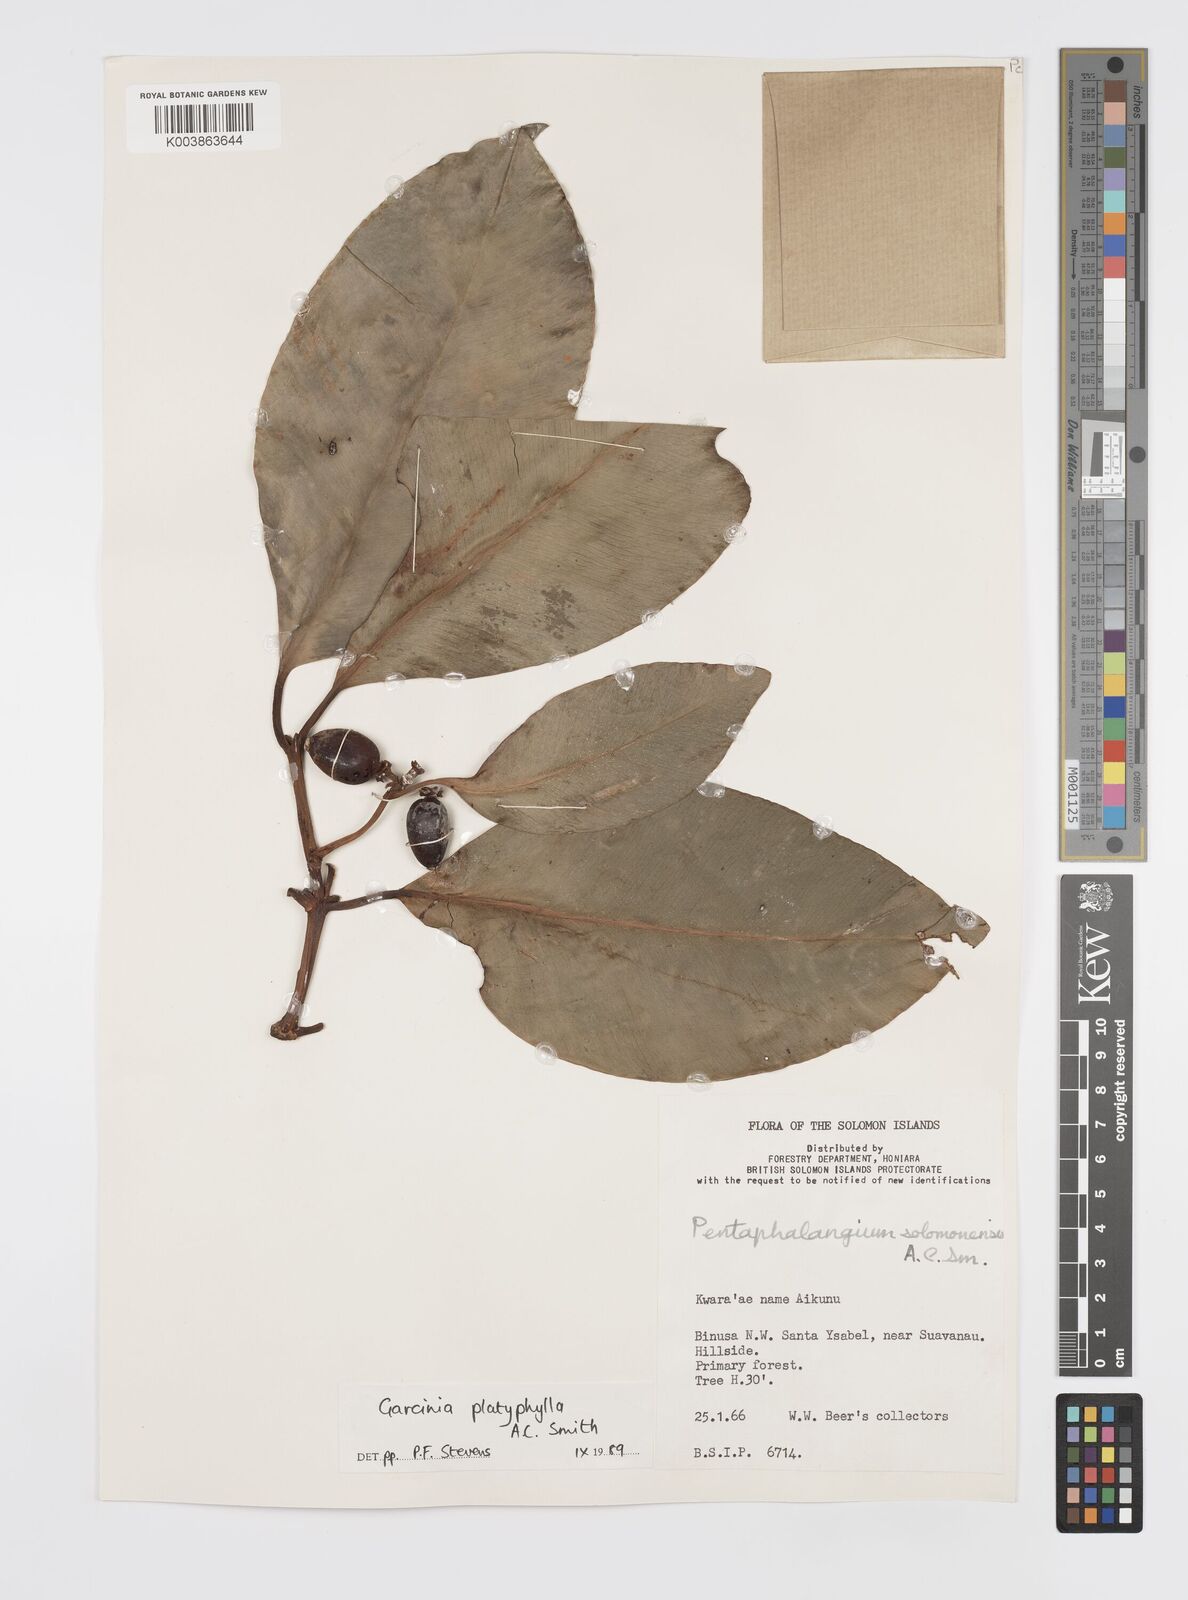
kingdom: Plantae
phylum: Tracheophyta
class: Magnoliopsida
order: Malpighiales
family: Clusiaceae
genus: Garcinia
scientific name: Garcinia platyphylla
